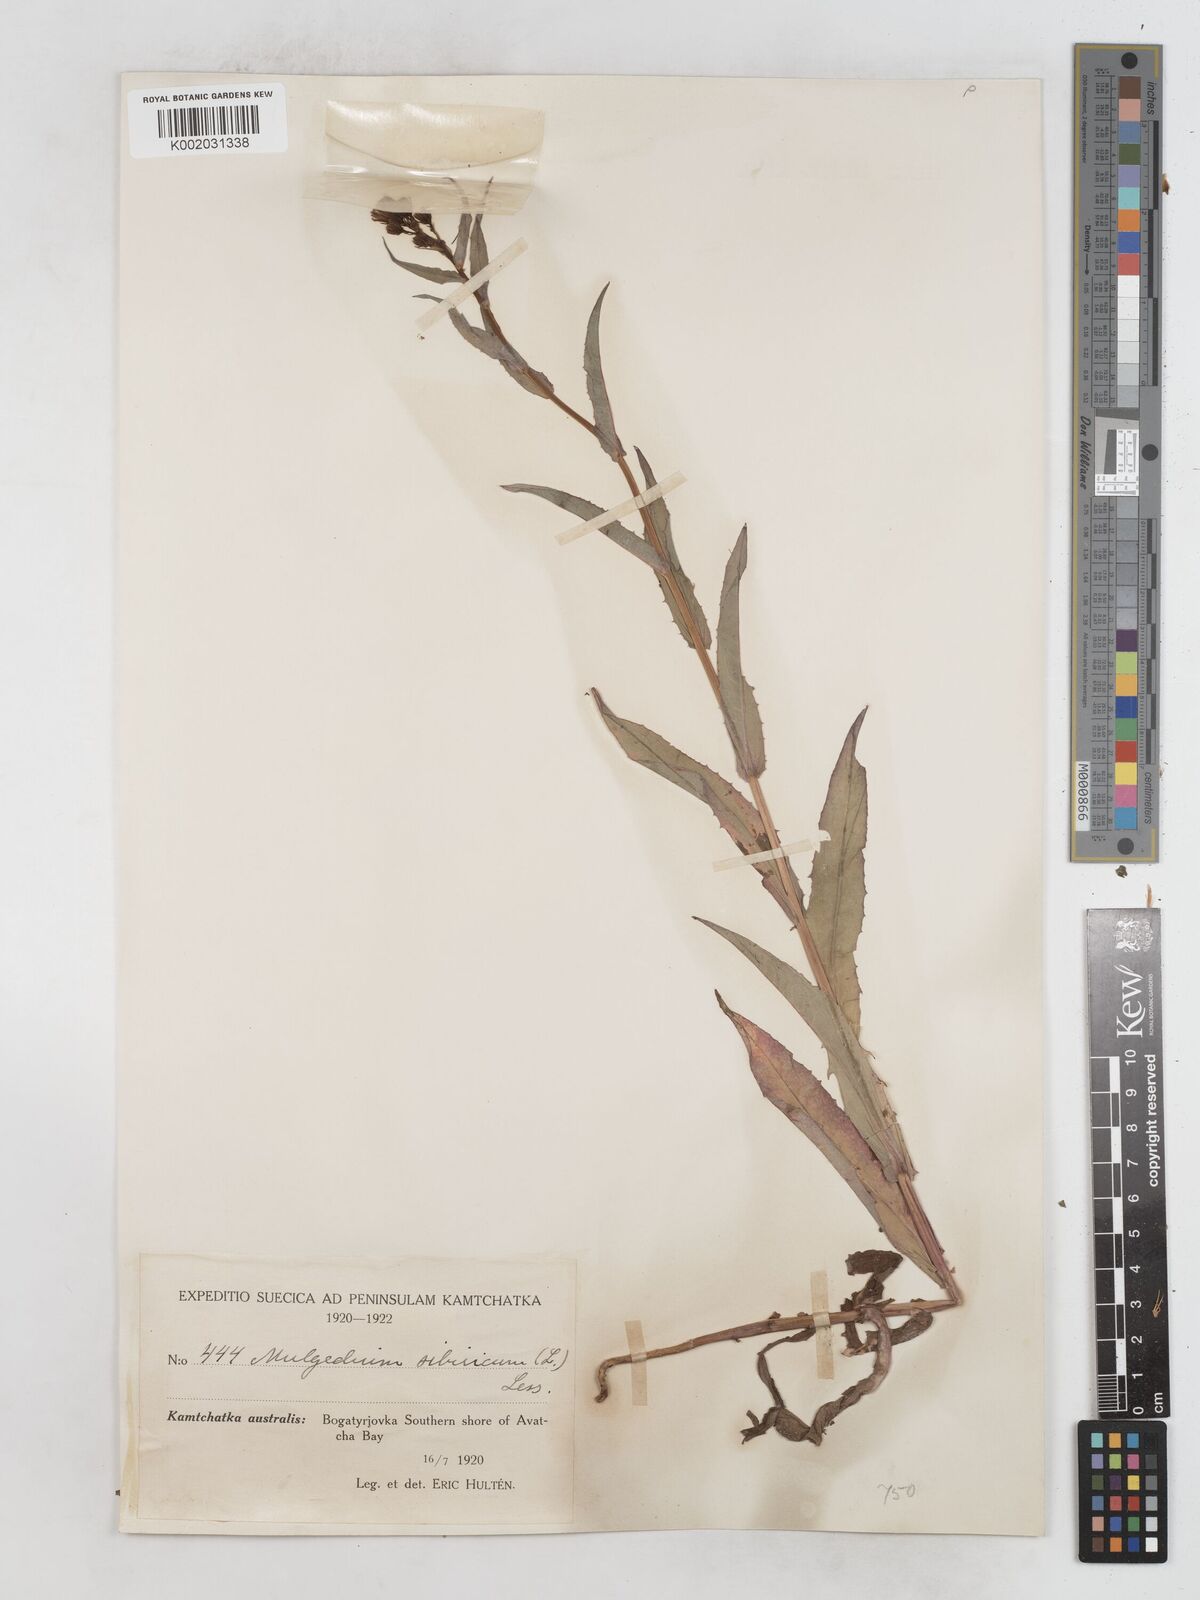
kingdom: Plantae
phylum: Tracheophyta
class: Magnoliopsida
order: Asterales
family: Asteraceae
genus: Lactuca
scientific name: Lactuca sibirica
